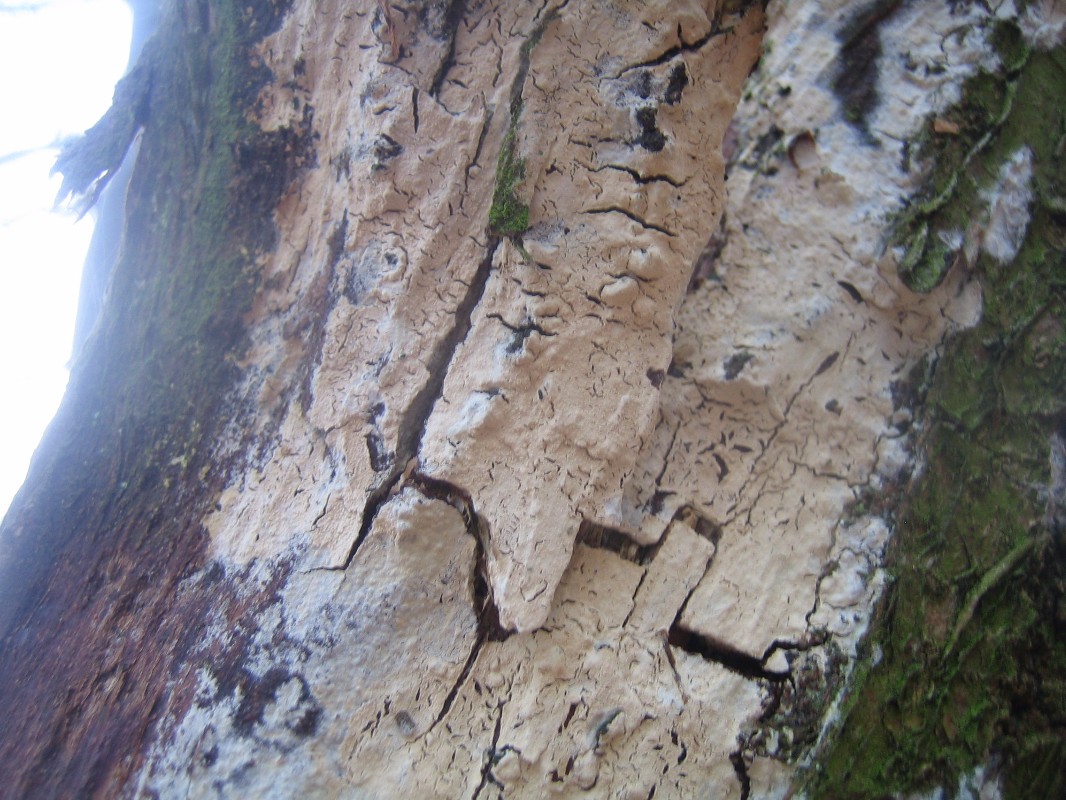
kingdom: Fungi
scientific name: Fungi
